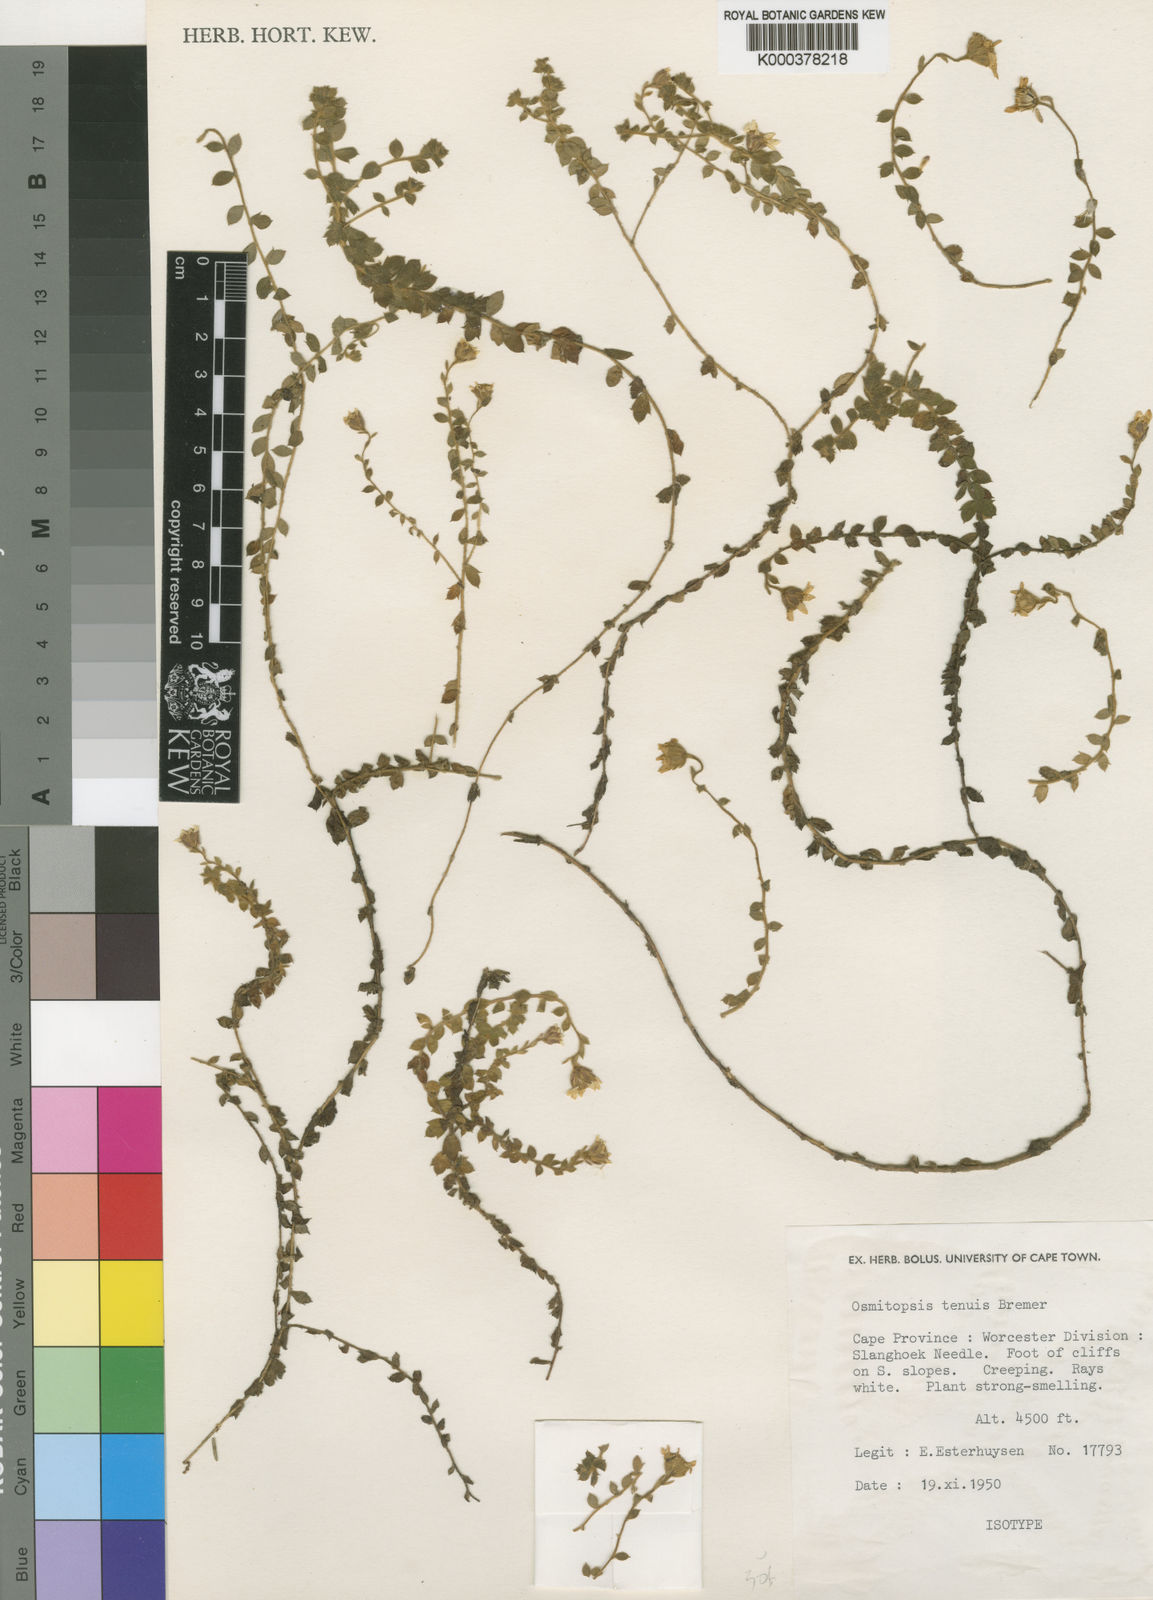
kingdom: Plantae
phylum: Tracheophyta
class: Magnoliopsida
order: Asterales
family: Asteraceae
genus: Osmitopsis
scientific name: Osmitopsis tenuis
